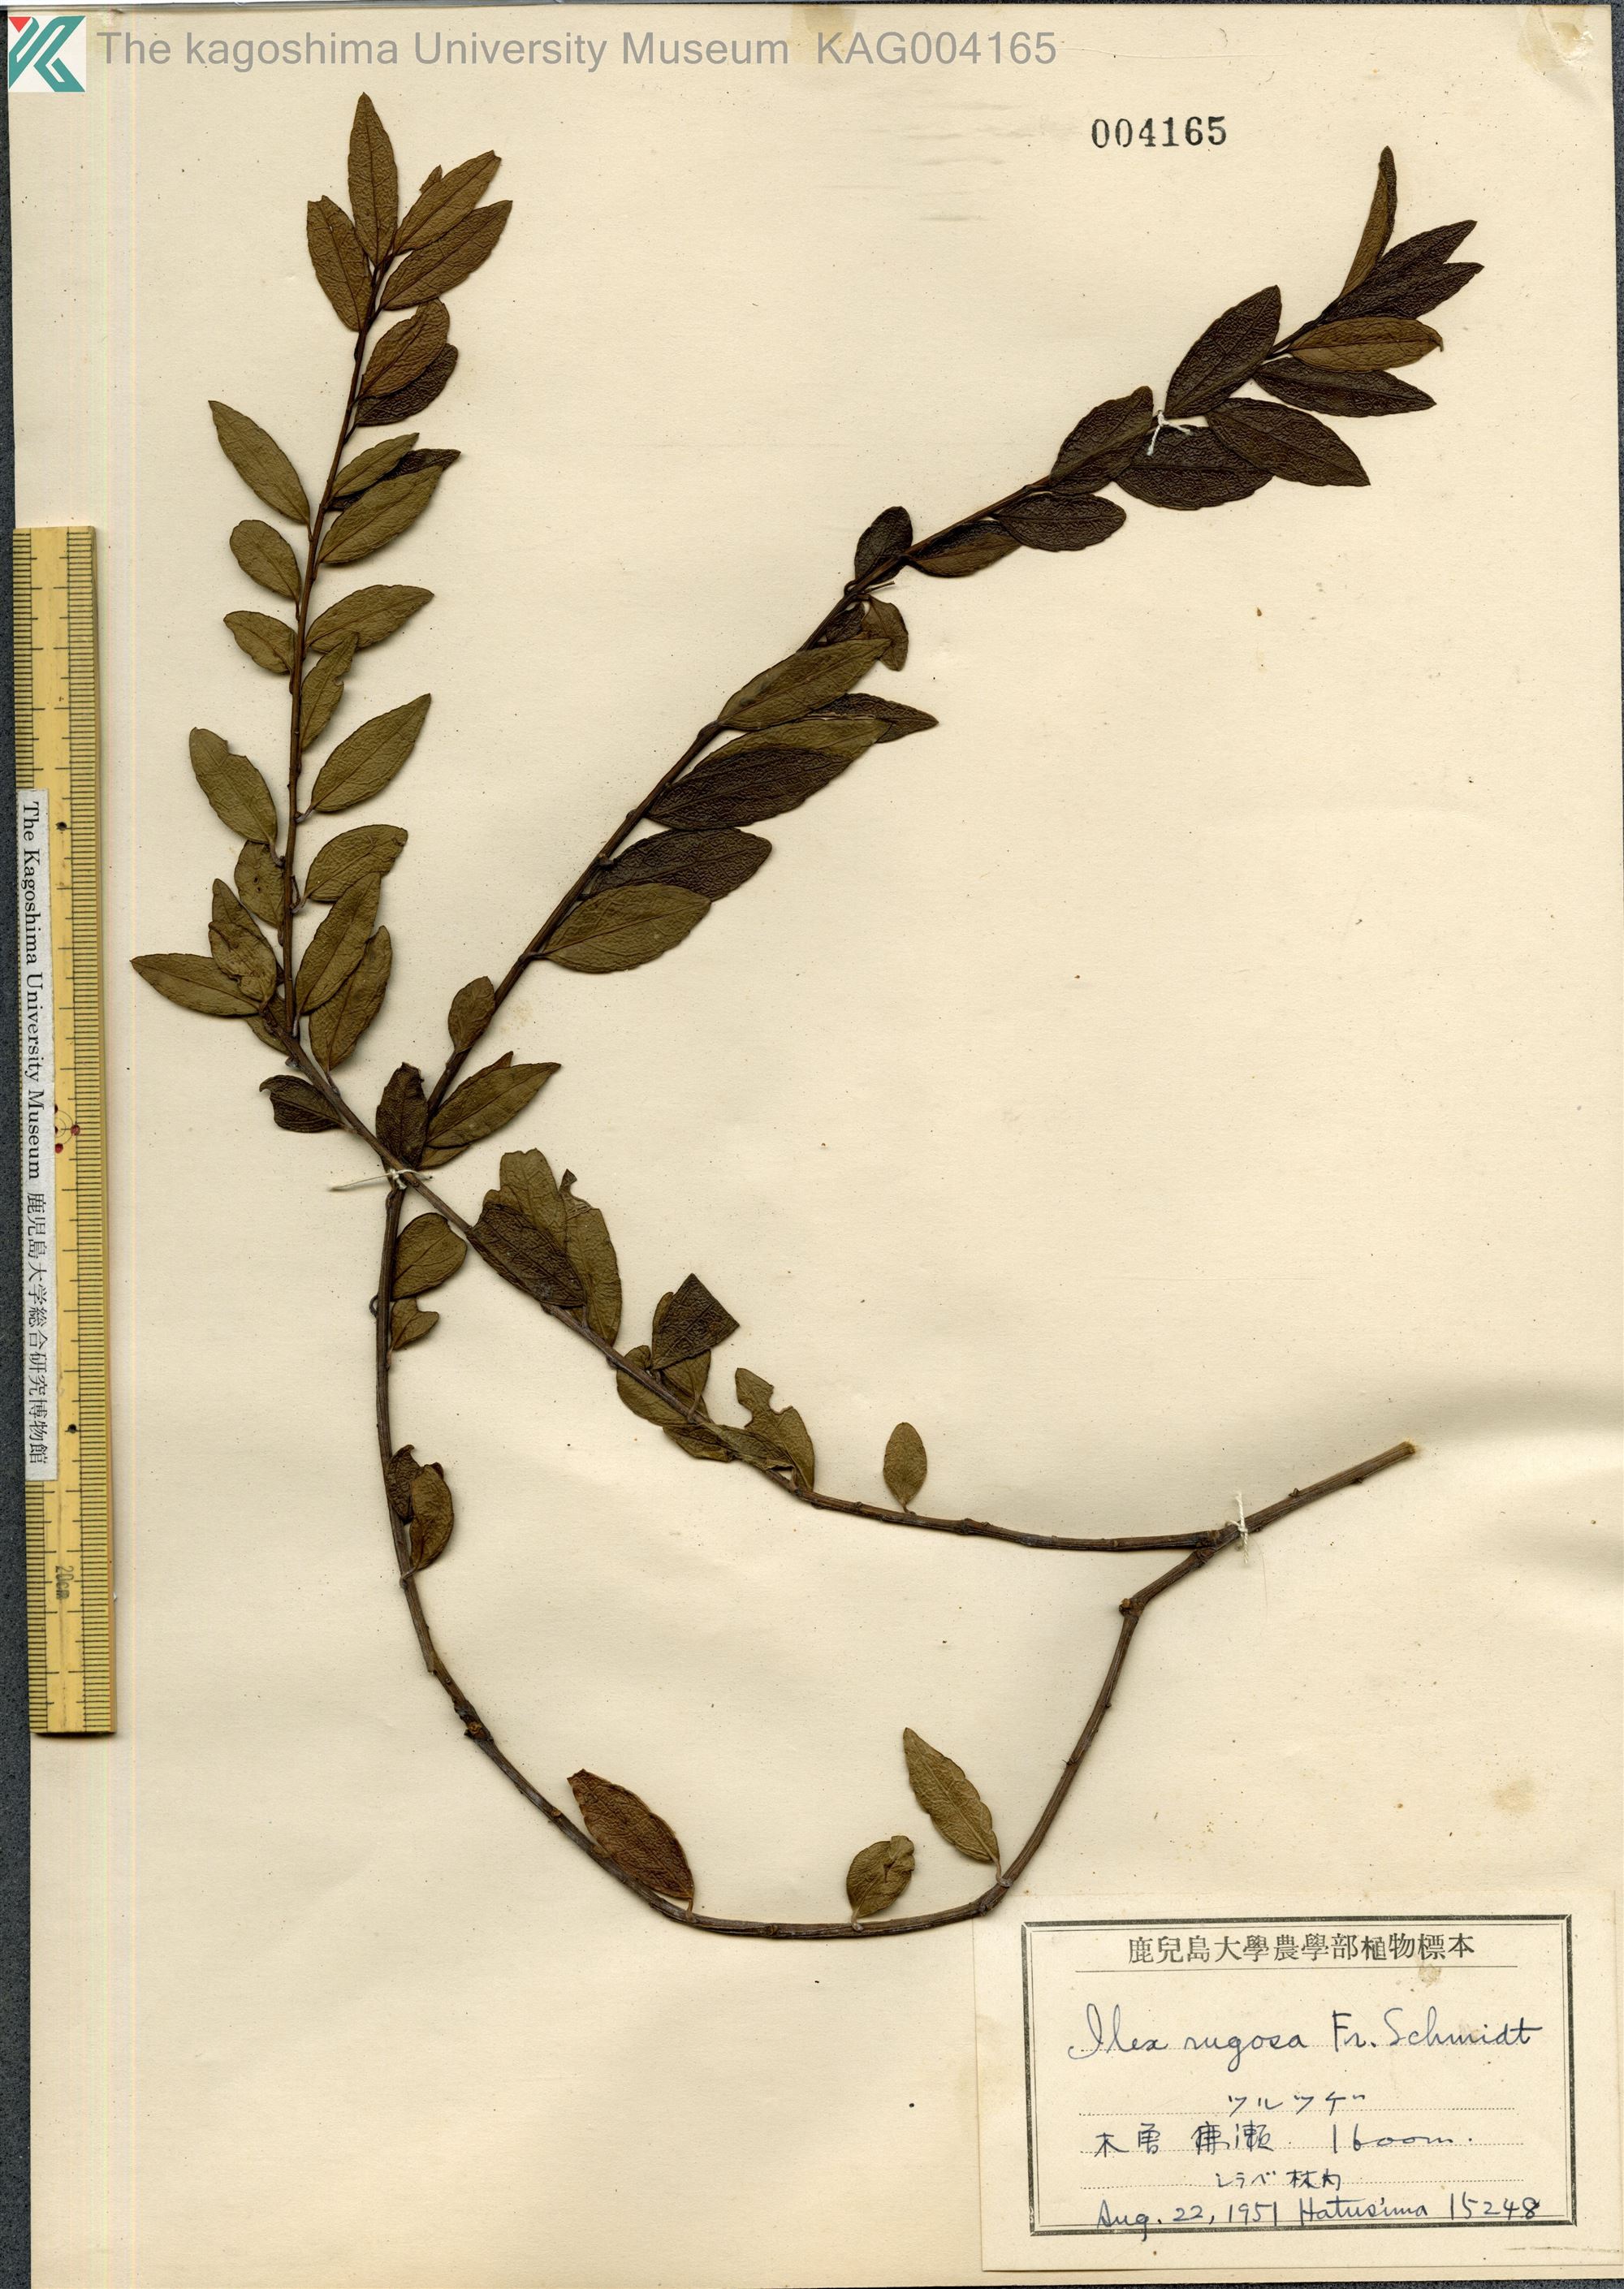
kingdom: Plantae
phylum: Tracheophyta
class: Magnoliopsida
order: Aquifoliales
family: Aquifoliaceae
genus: Ilex
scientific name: Ilex rugosa
